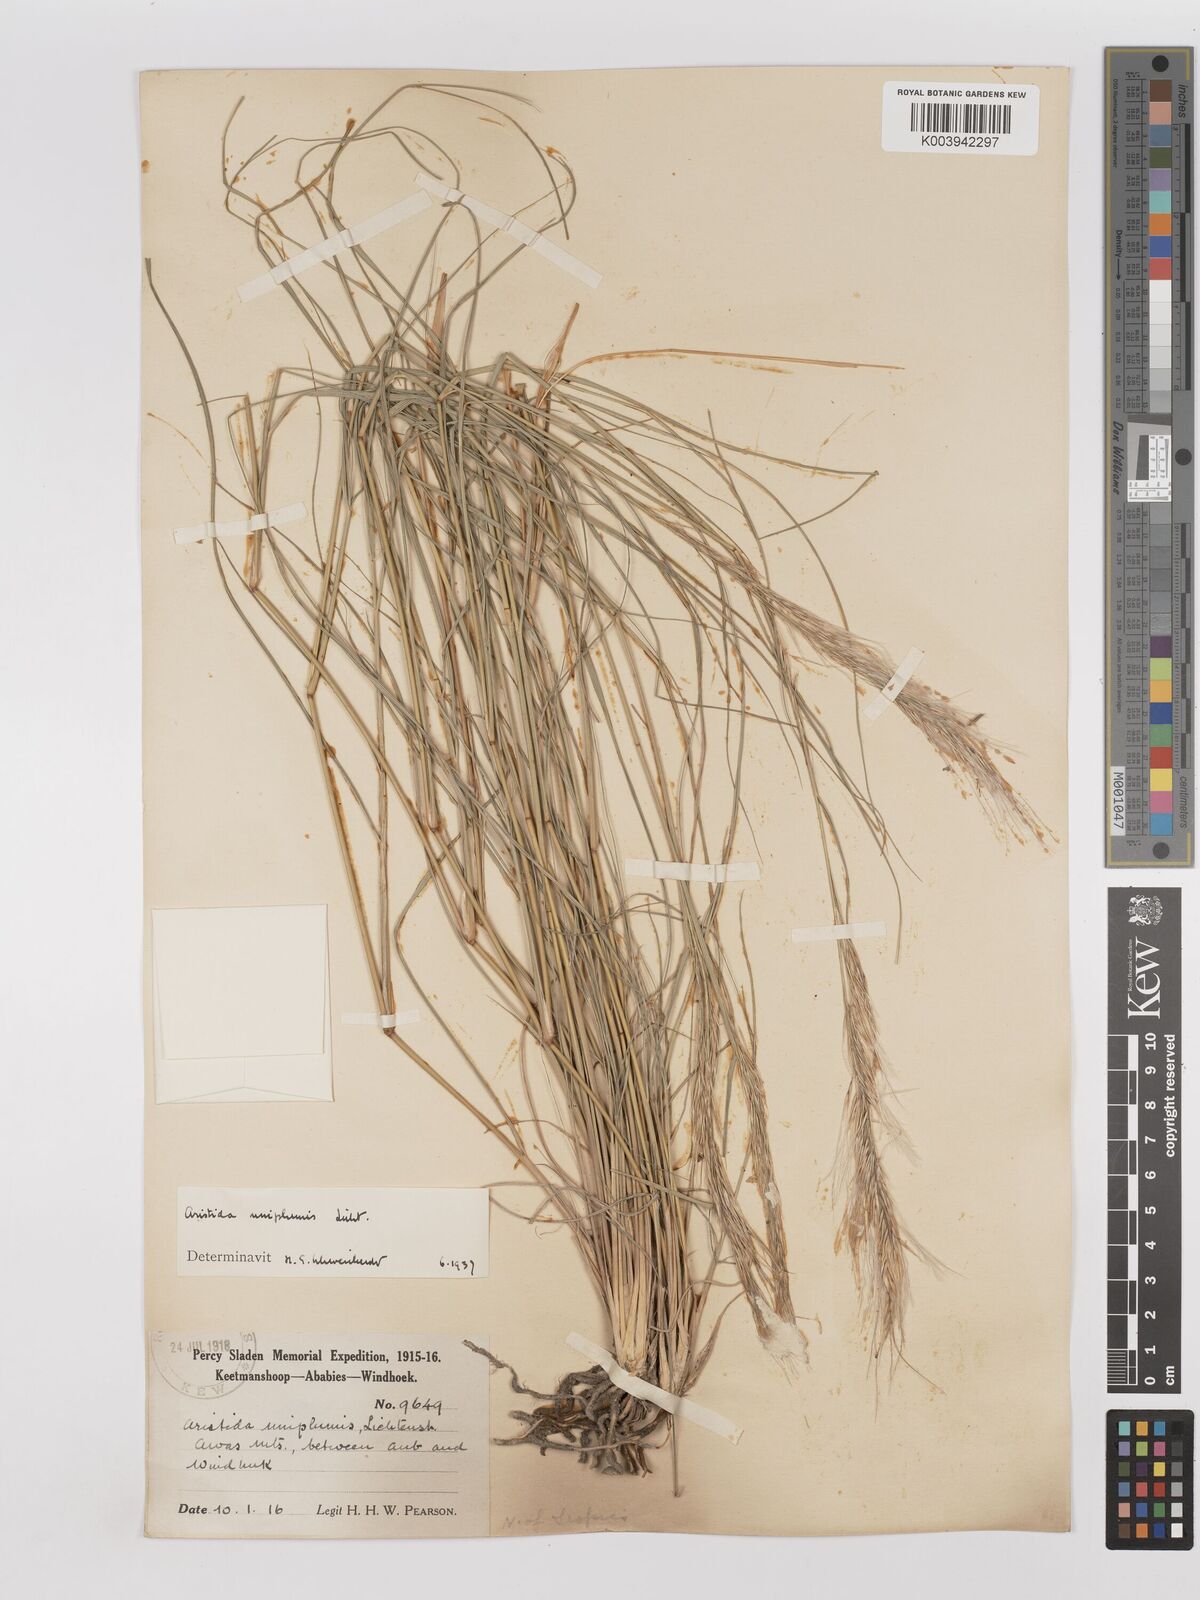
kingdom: Plantae
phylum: Tracheophyta
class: Liliopsida
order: Poales
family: Poaceae
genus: Stipagrostis
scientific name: Stipagrostis uniplumis
